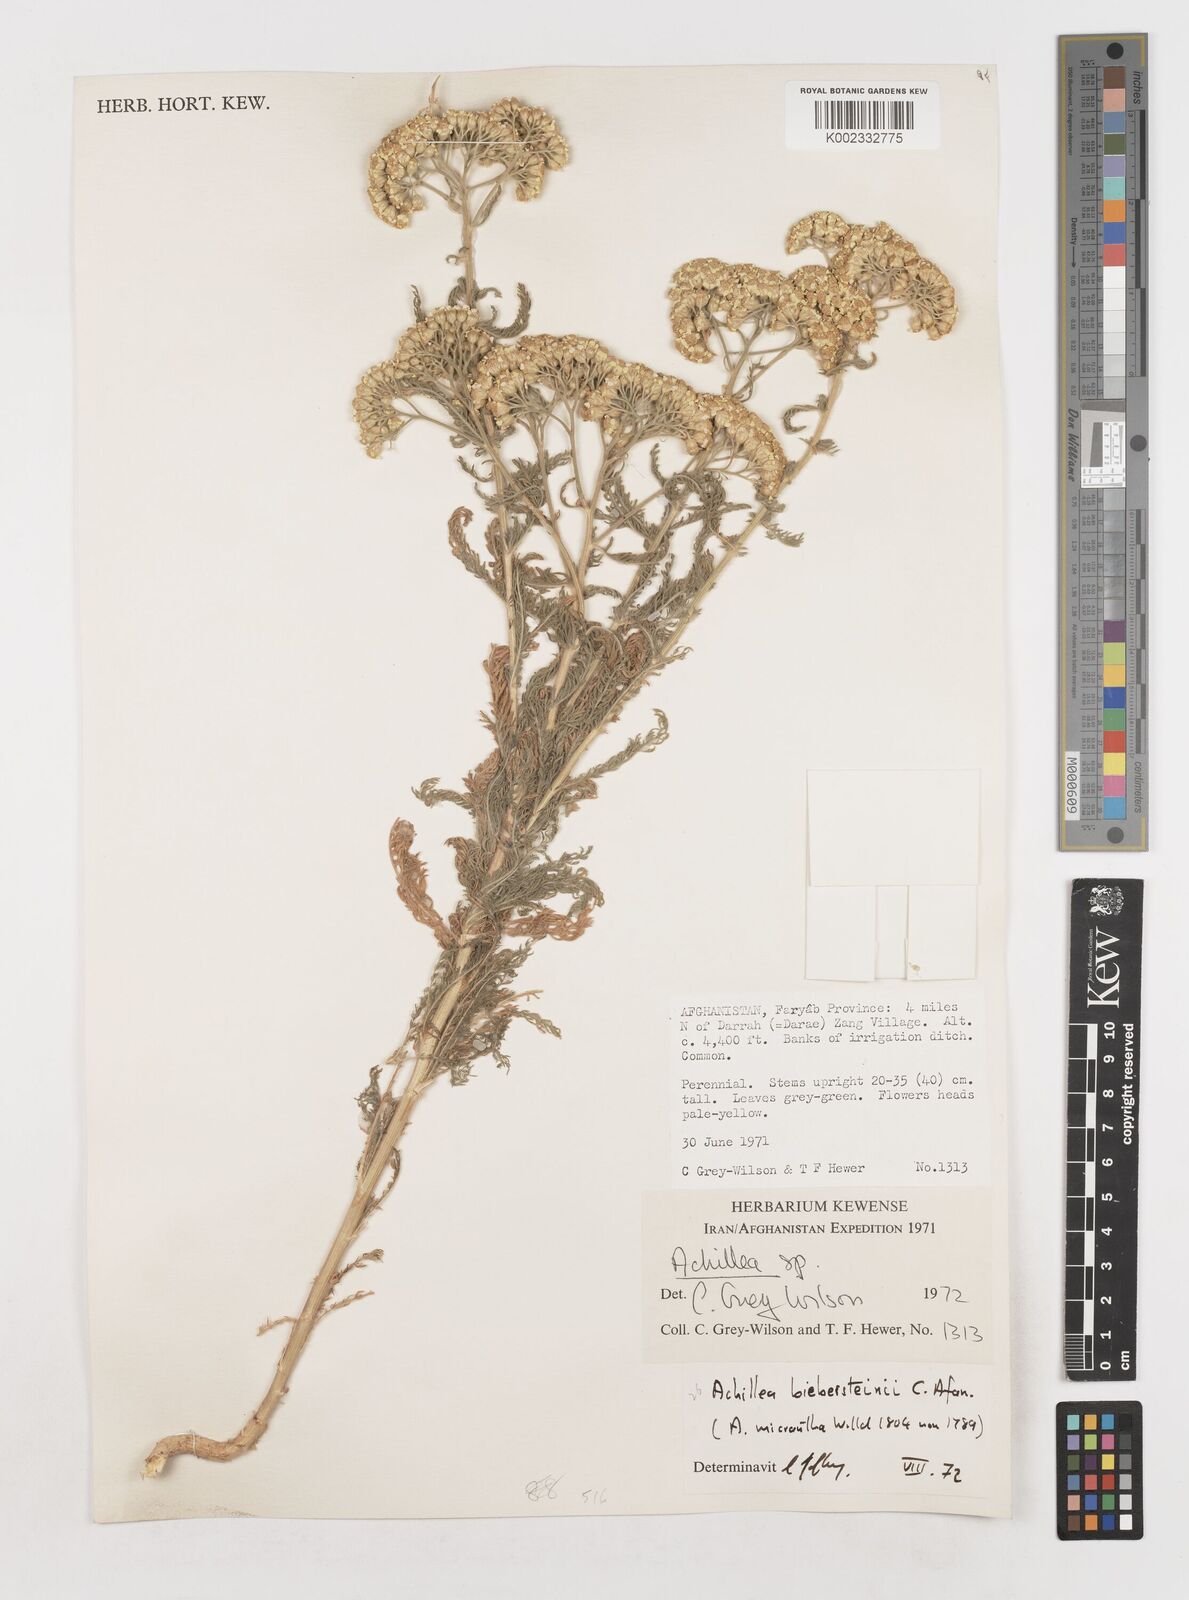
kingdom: Plantae
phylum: Tracheophyta
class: Magnoliopsida
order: Asterales
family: Asteraceae
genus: Achillea
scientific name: Achillea arabica
